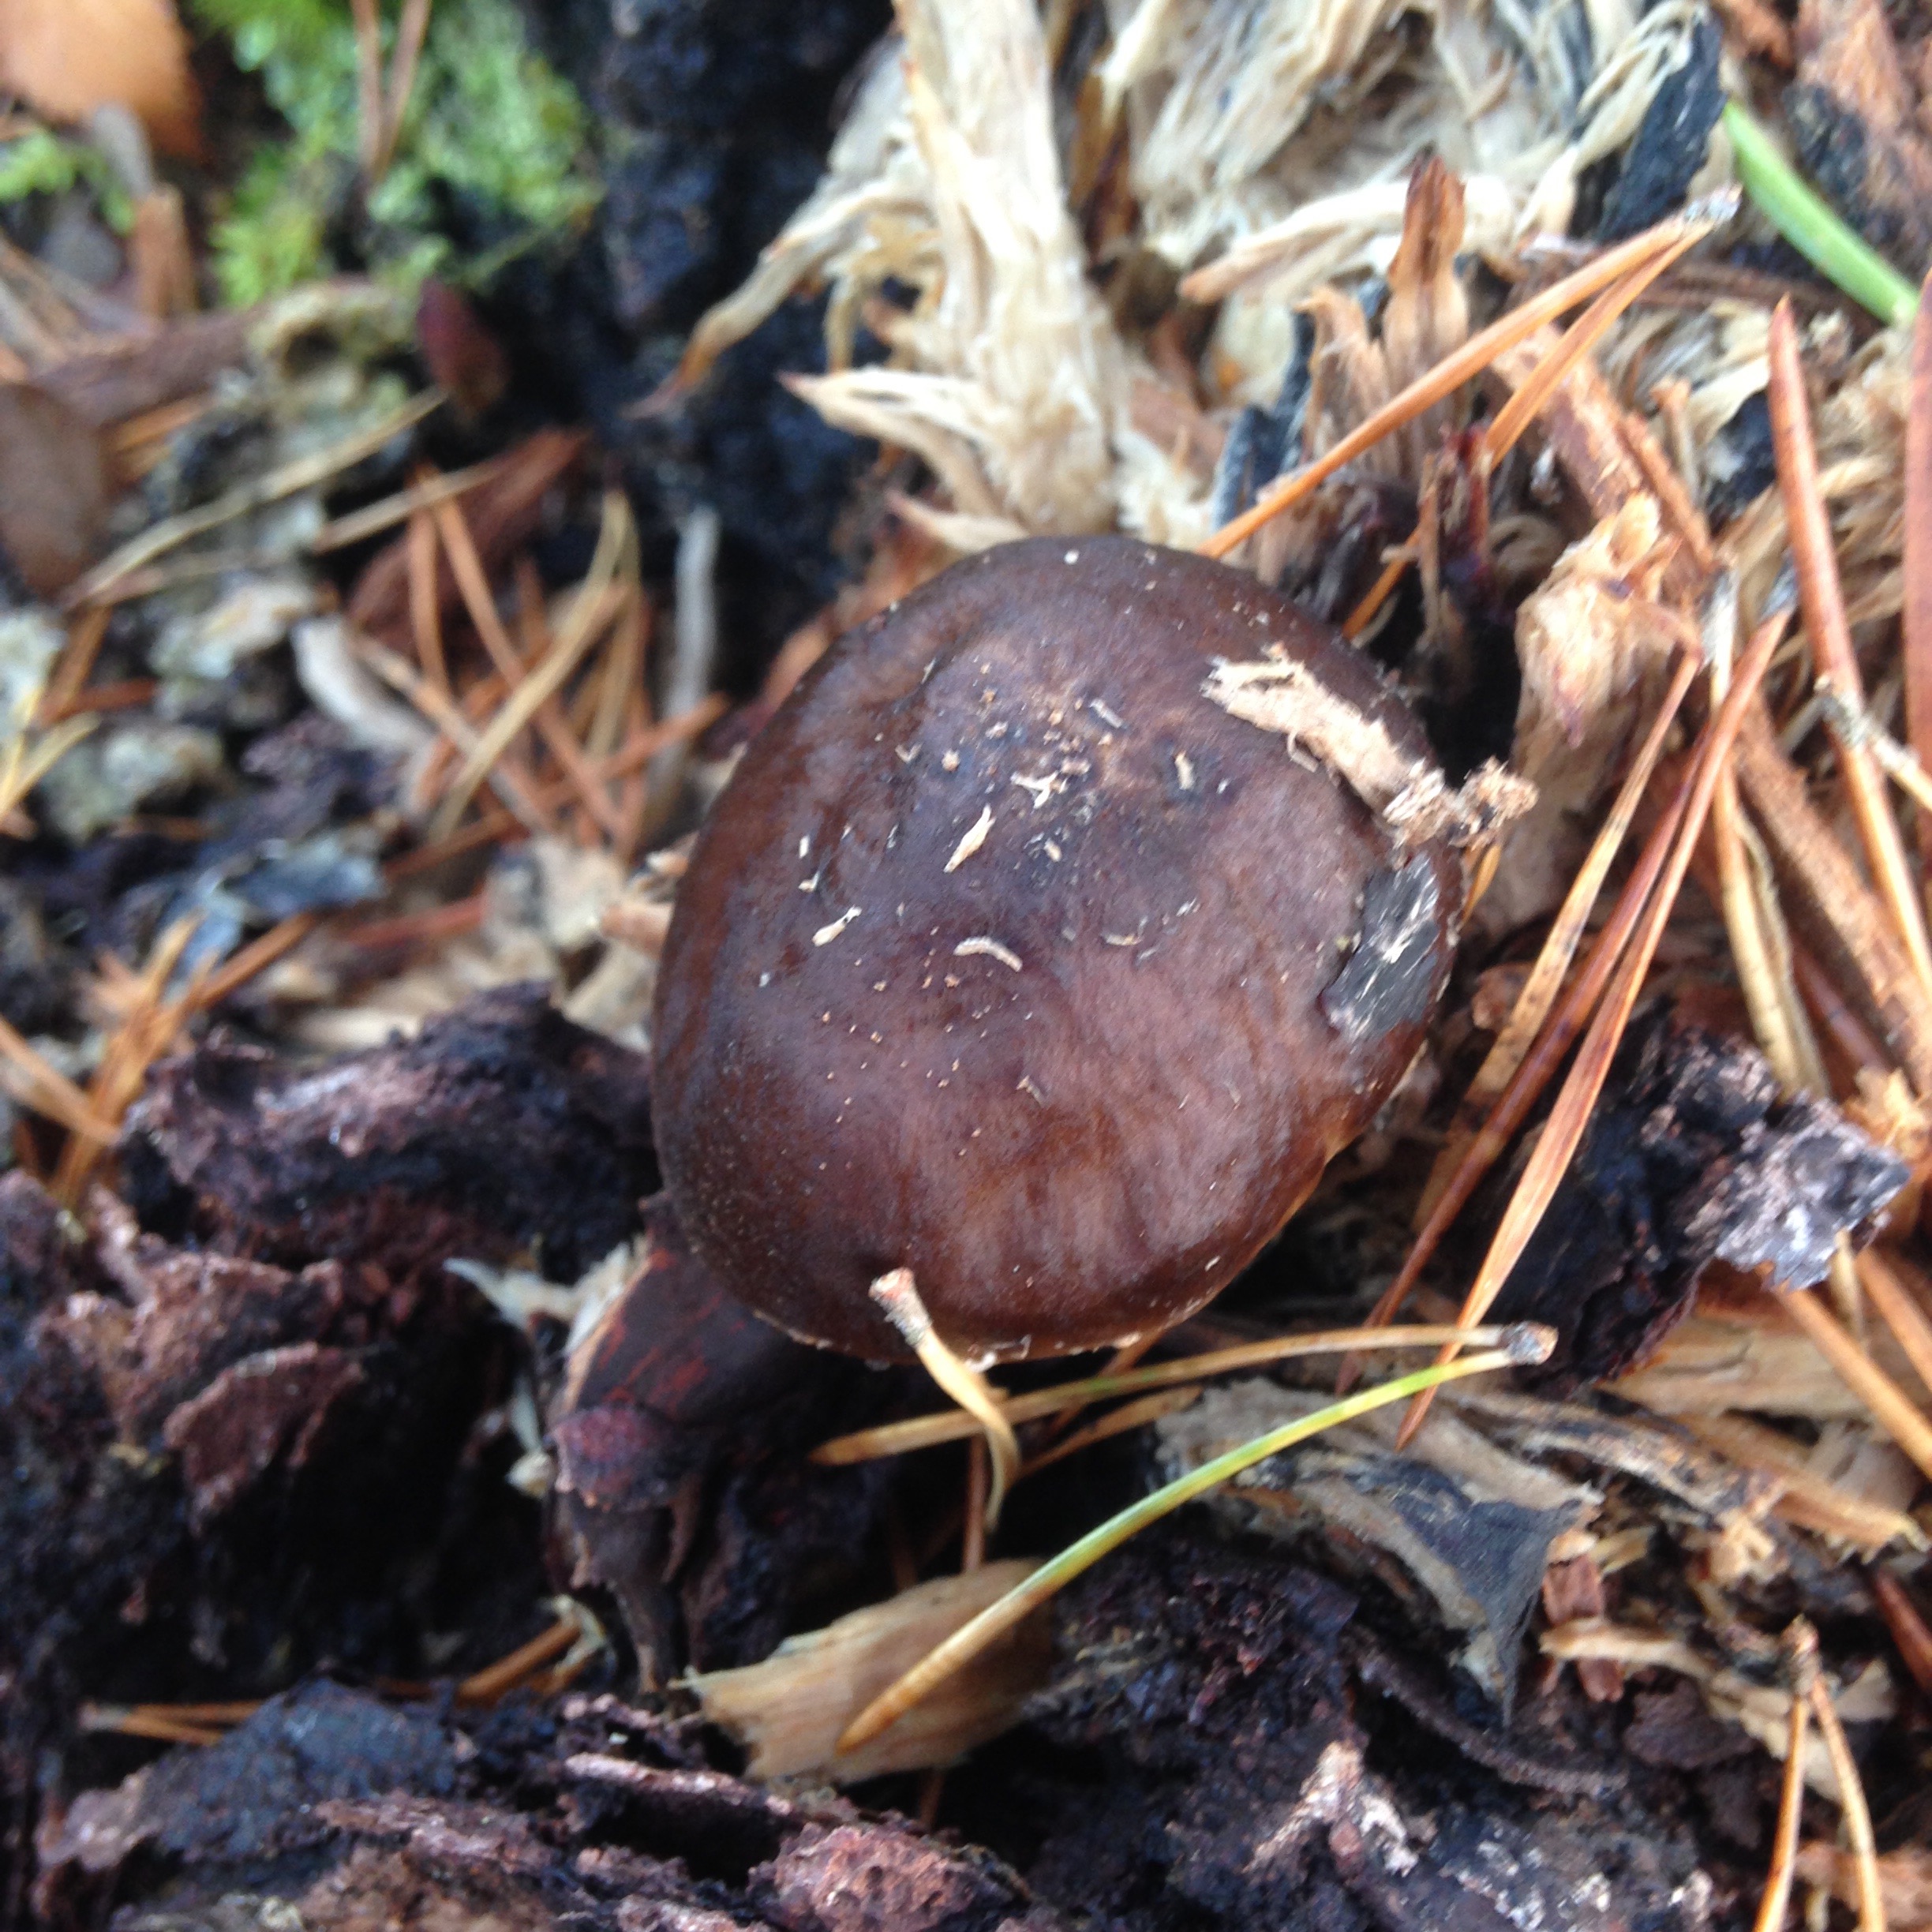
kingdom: Fungi
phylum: Basidiomycota
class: Agaricomycetes
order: Agaricales
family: Pluteaceae
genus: Pluteus
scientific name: Pluteus cervinus
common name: Deer shield
